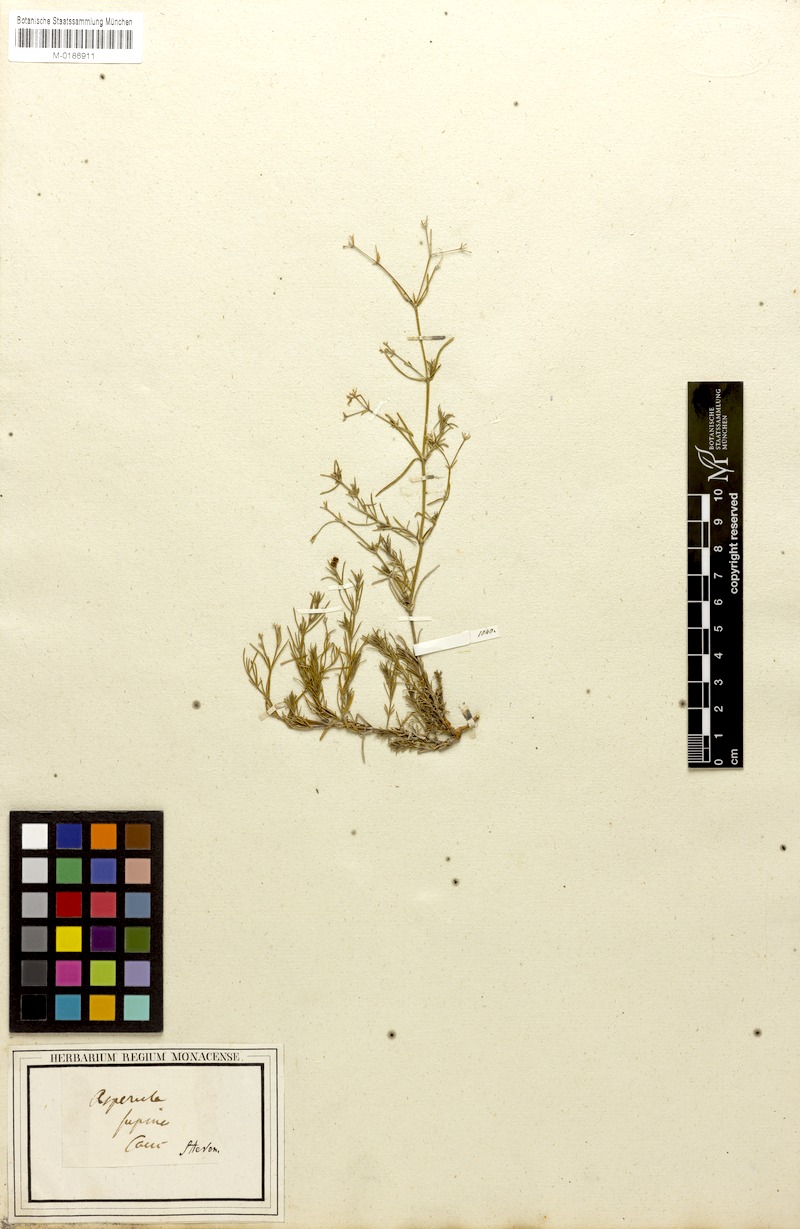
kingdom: Plantae
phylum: Tracheophyta
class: Magnoliopsida
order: Gentianales
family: Rubiaceae
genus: Cynanchica
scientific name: Cynanchica supina
